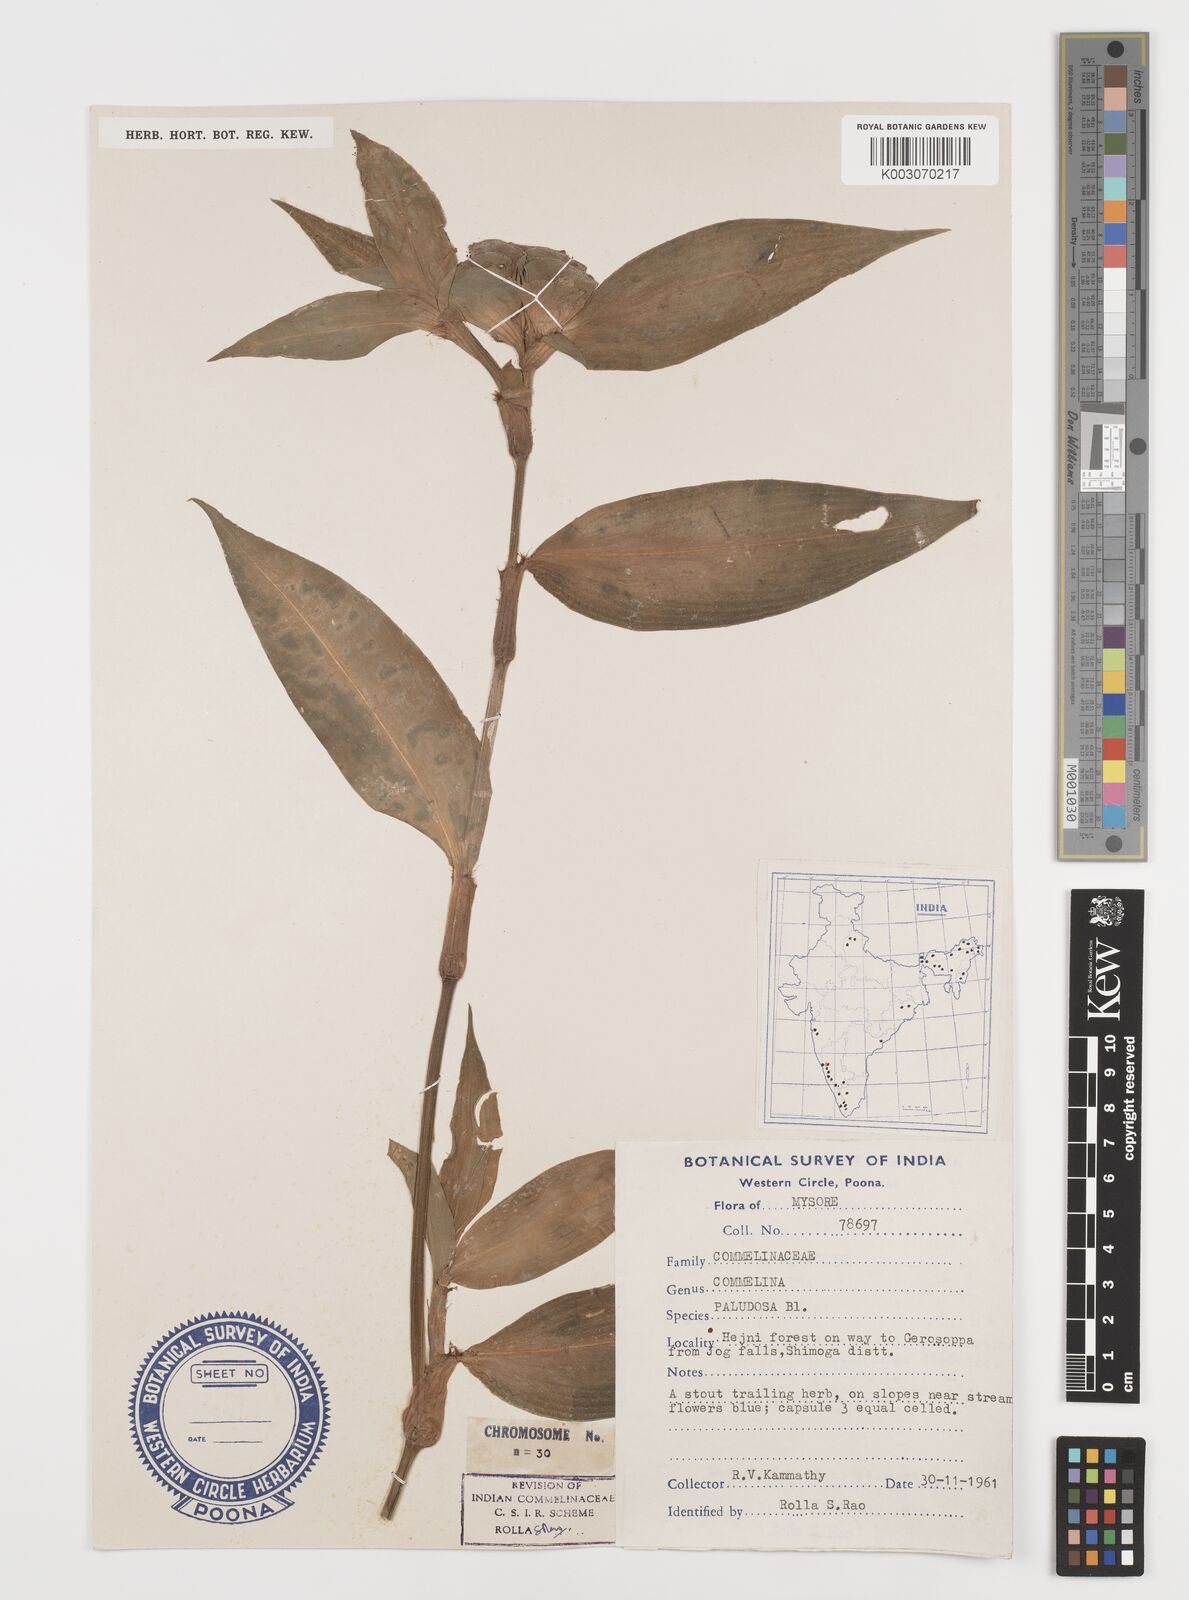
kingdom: Plantae
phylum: Tracheophyta
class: Liliopsida
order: Commelinales
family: Commelinaceae
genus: Commelina
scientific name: Commelina paludosa
